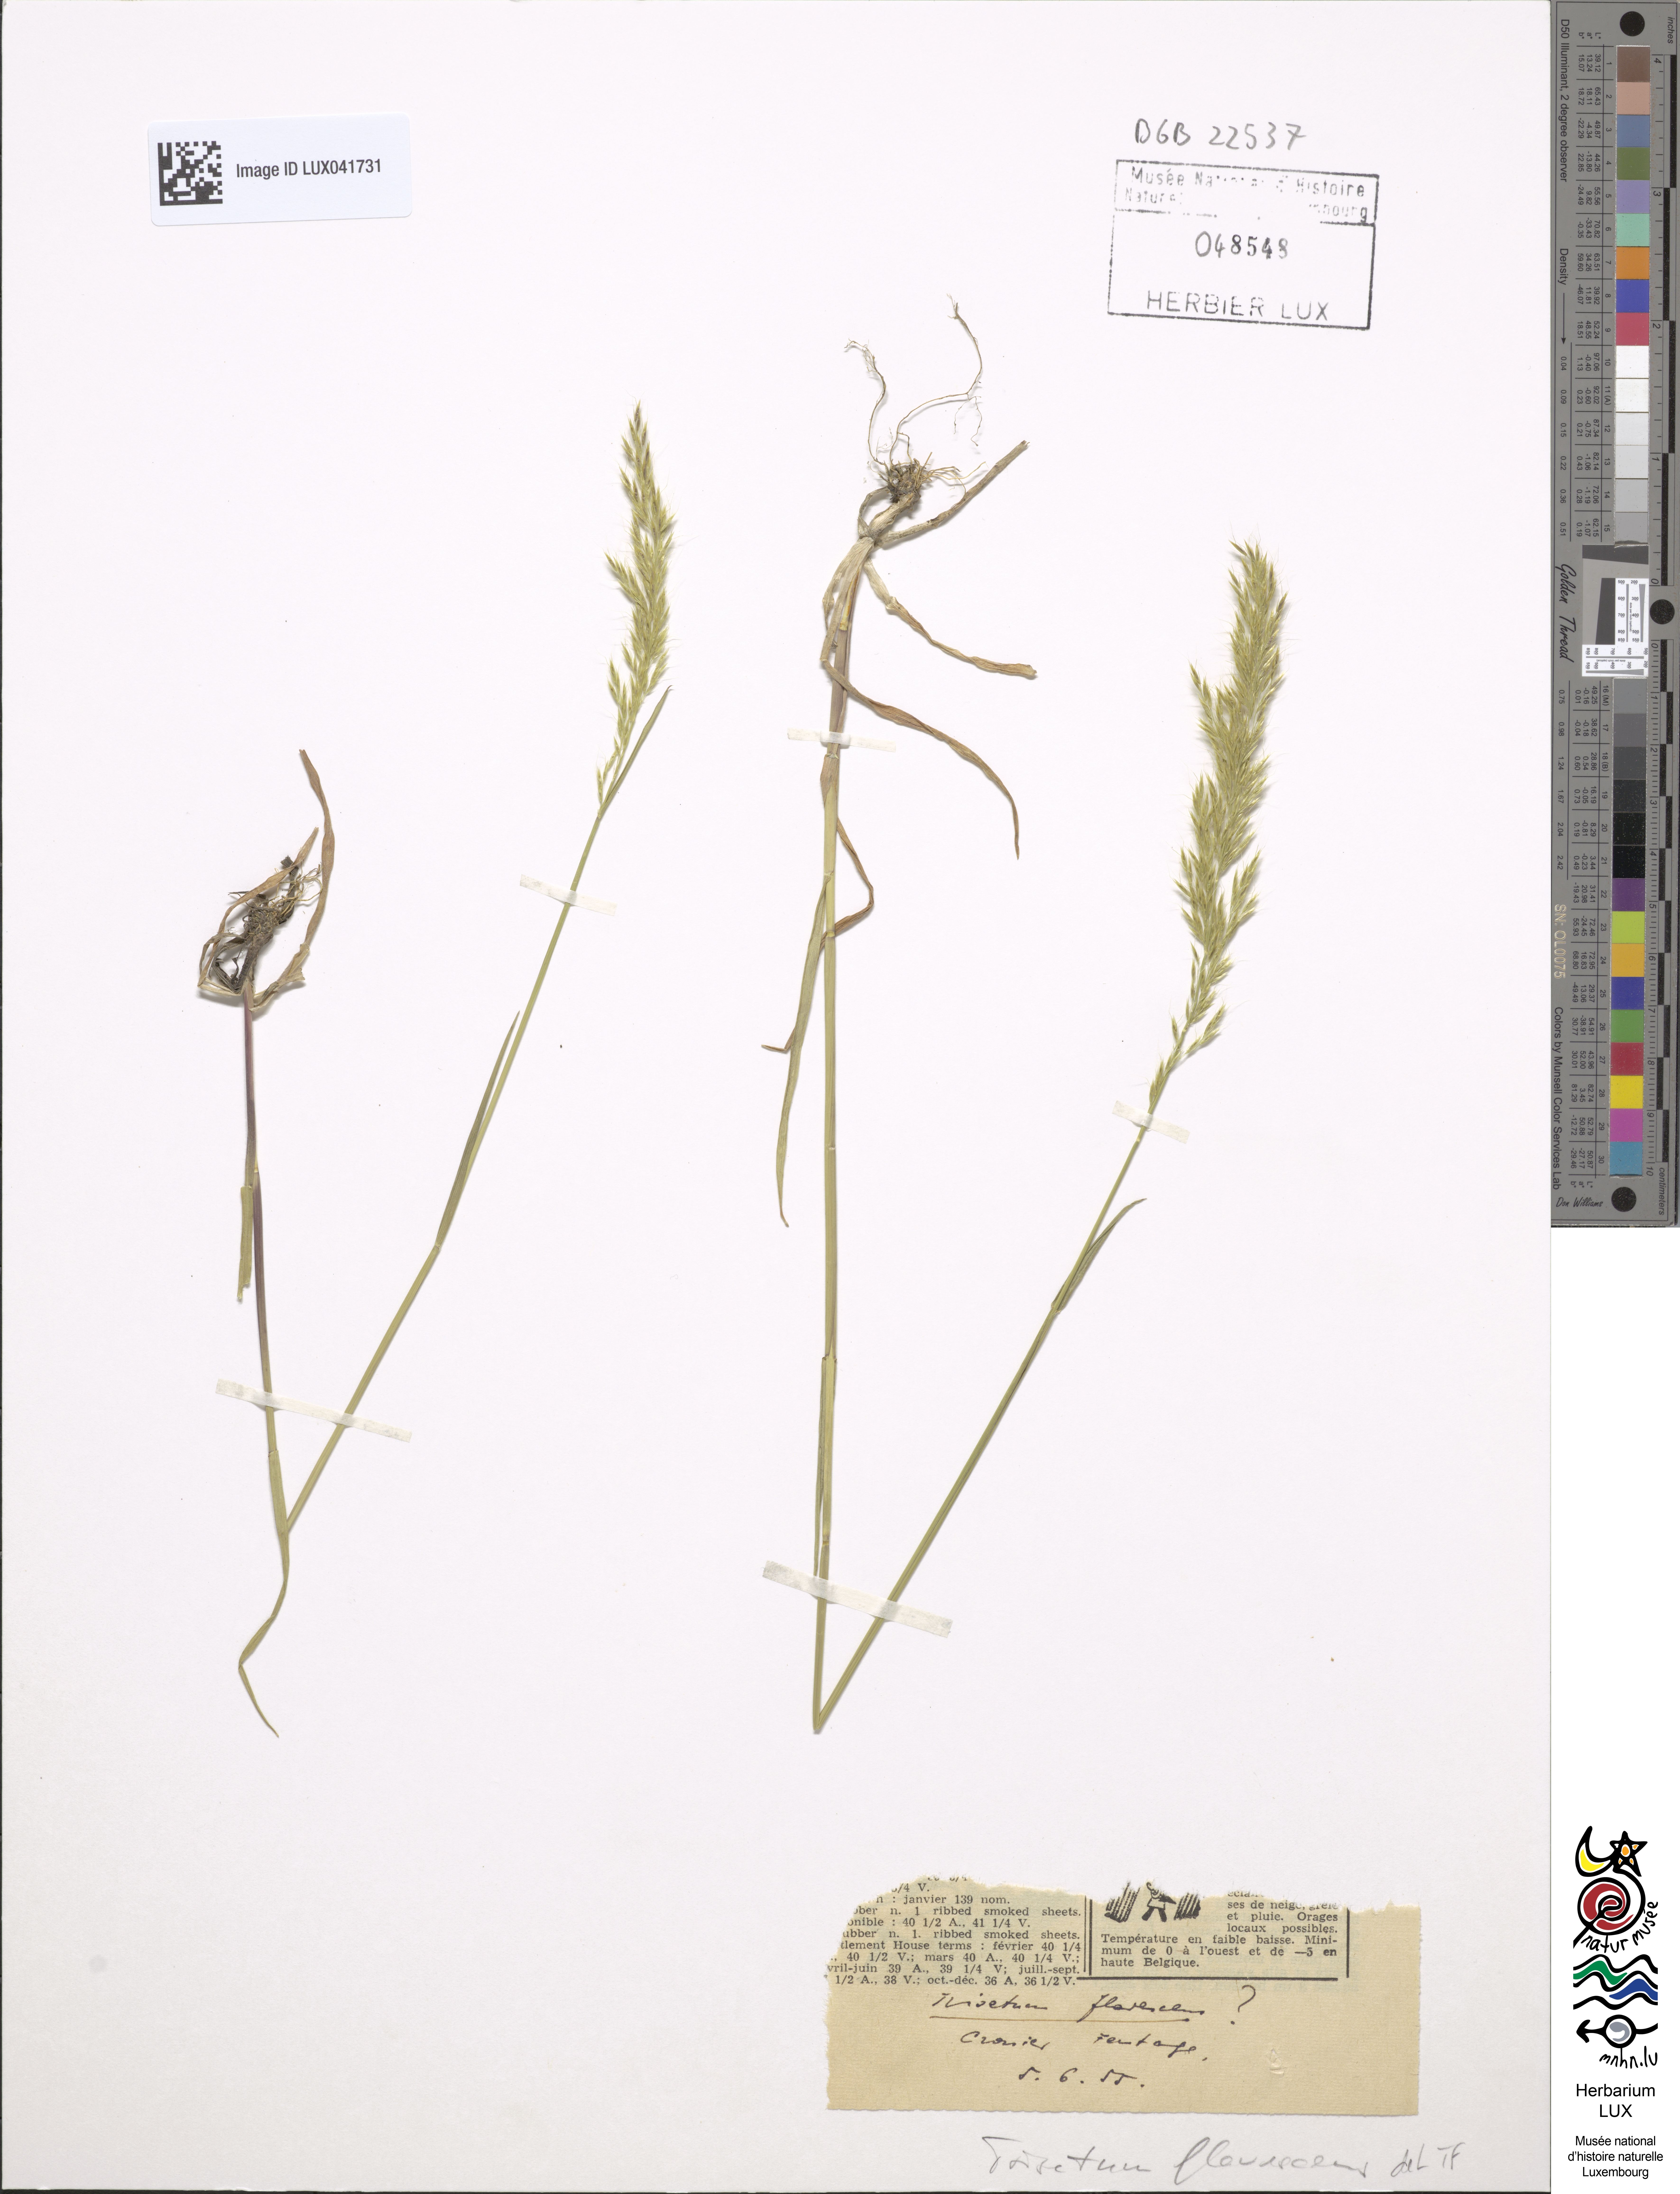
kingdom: Plantae
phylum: Tracheophyta
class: Liliopsida
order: Poales
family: Poaceae
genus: Trisetum
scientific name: Trisetum flavescens
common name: Yellow oat-grass
